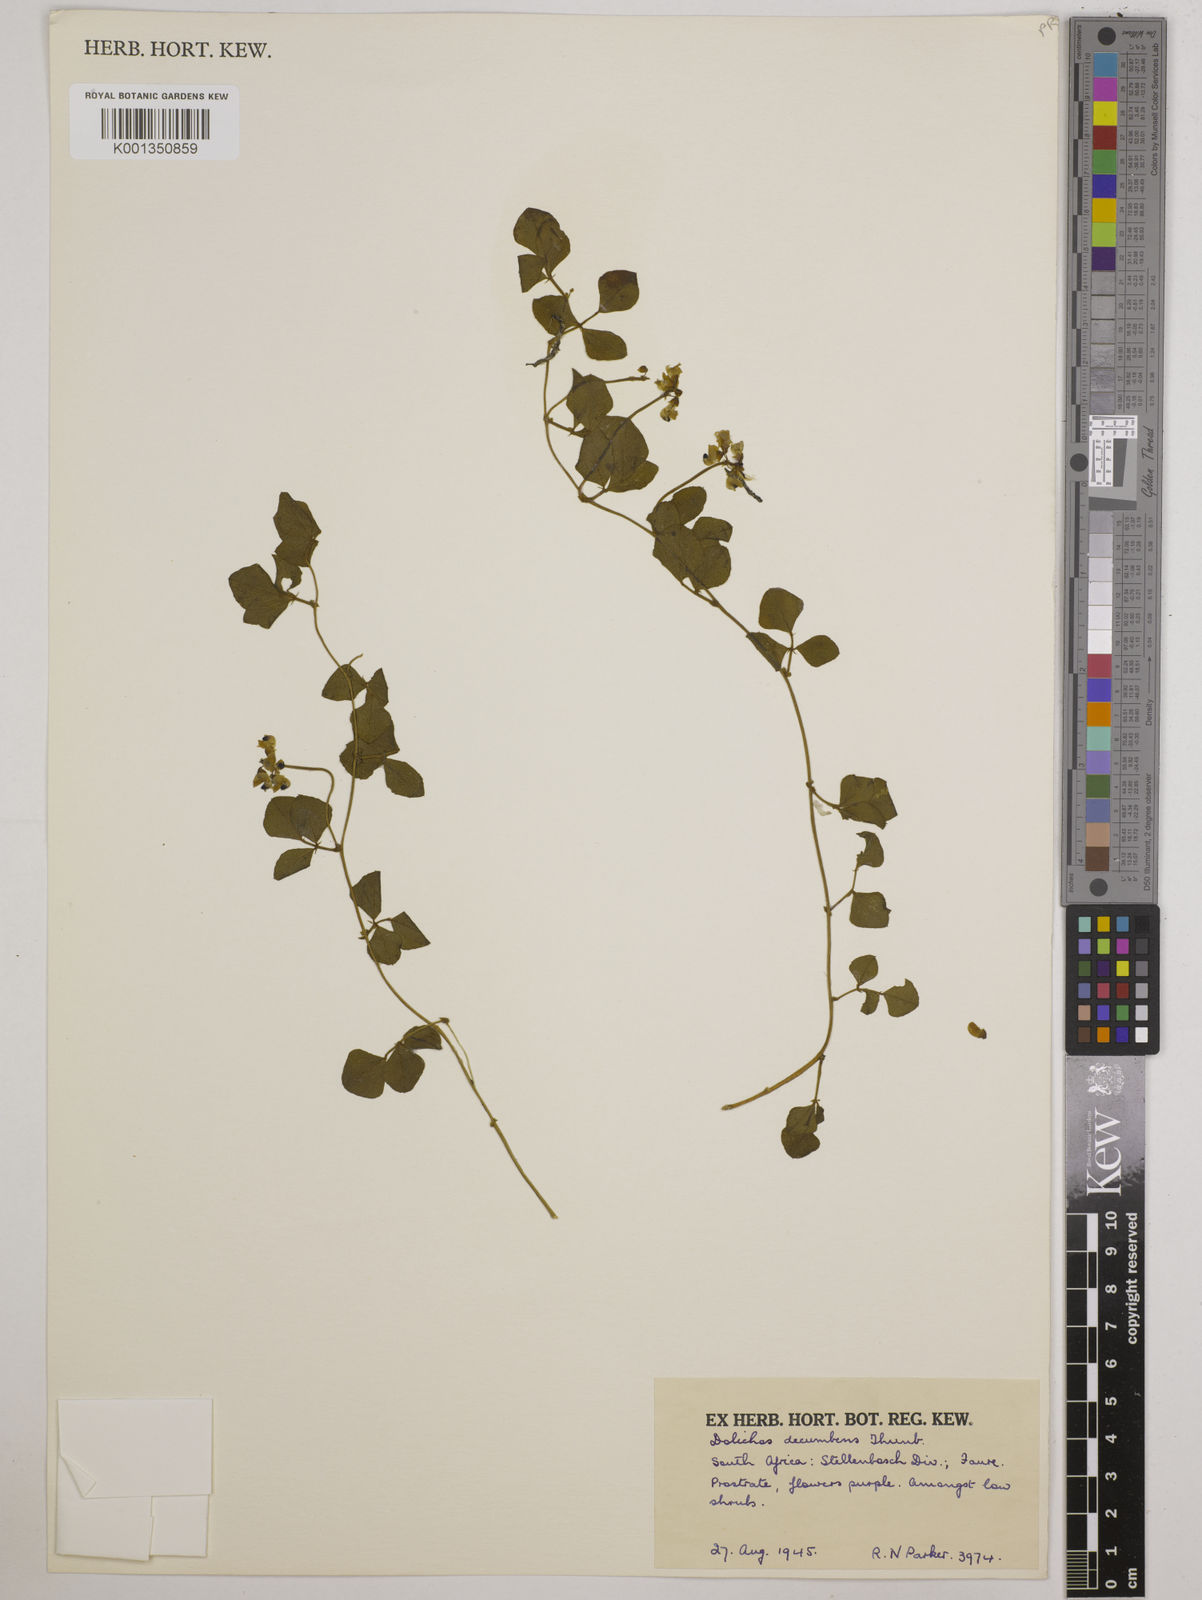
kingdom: Plantae
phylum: Tracheophyta
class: Magnoliopsida
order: Fabales
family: Fabaceae
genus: Dolichos
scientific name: Dolichos decumbens
